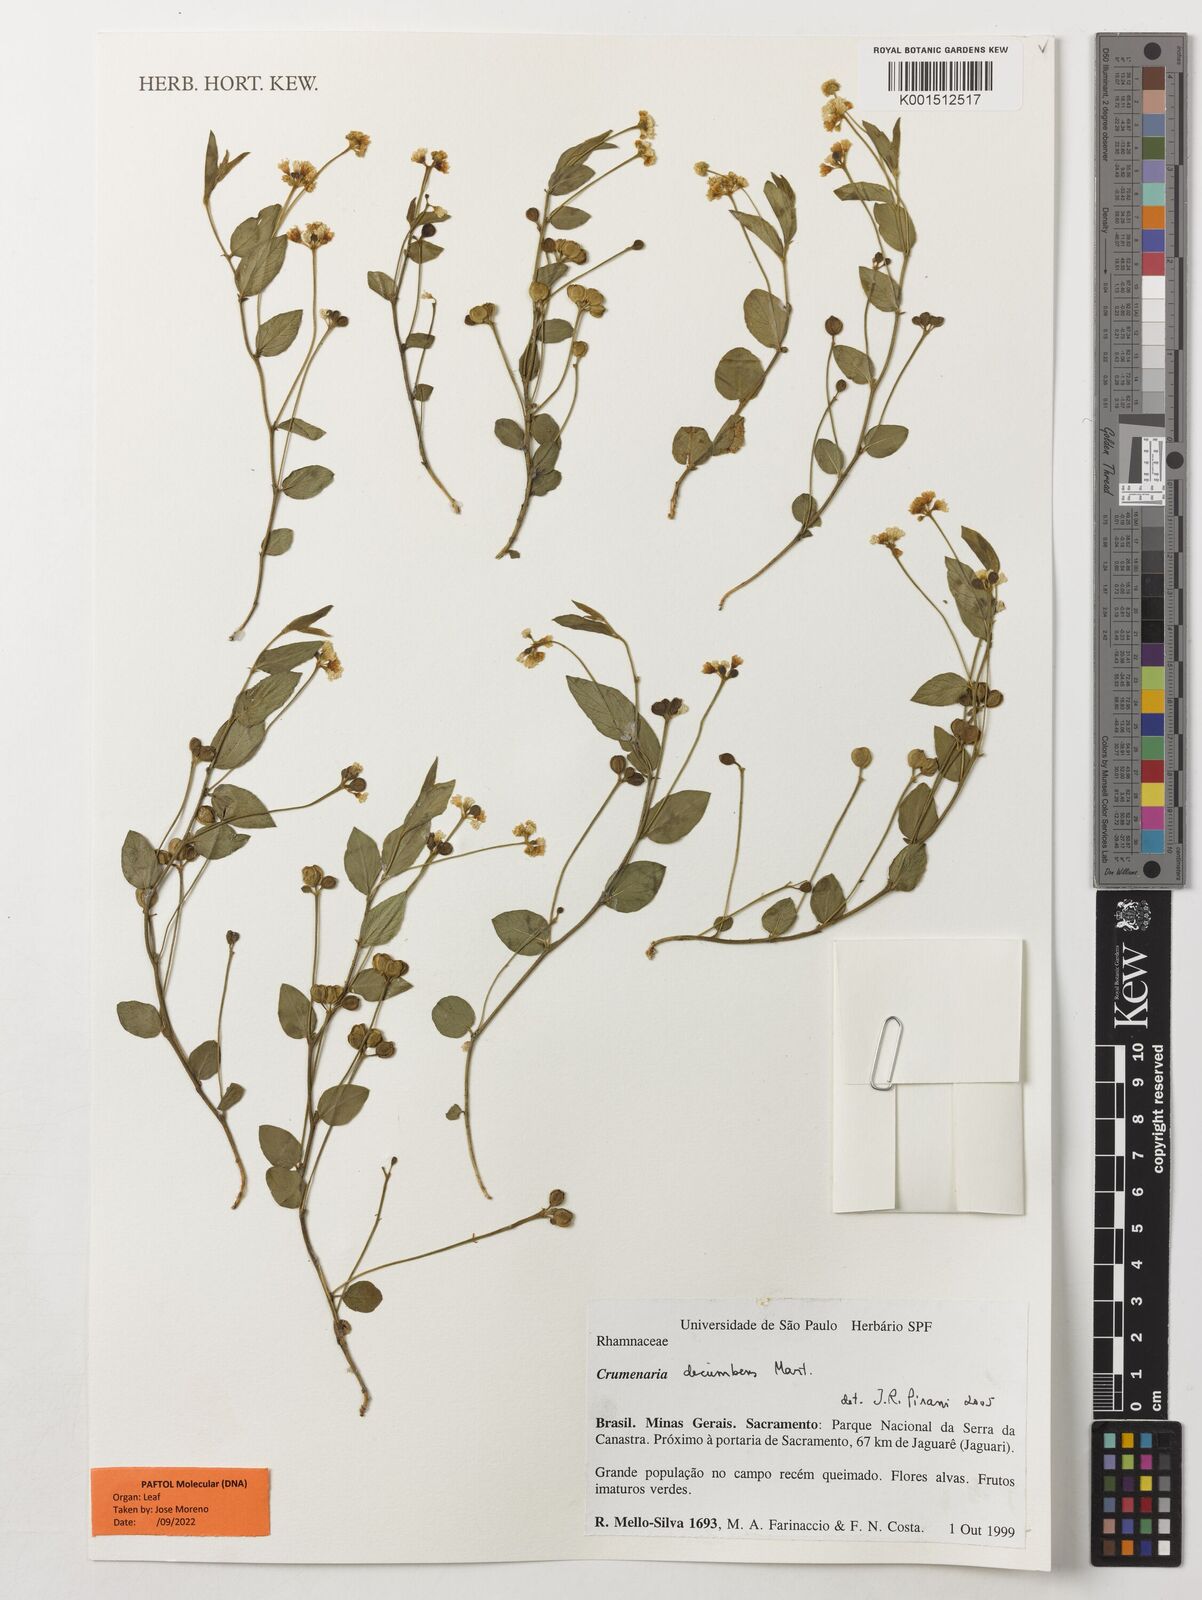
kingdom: Plantae
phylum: Tracheophyta
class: Magnoliopsida
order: Rosales
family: Rhamnaceae
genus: Crumenaria
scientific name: Crumenaria decumbens
